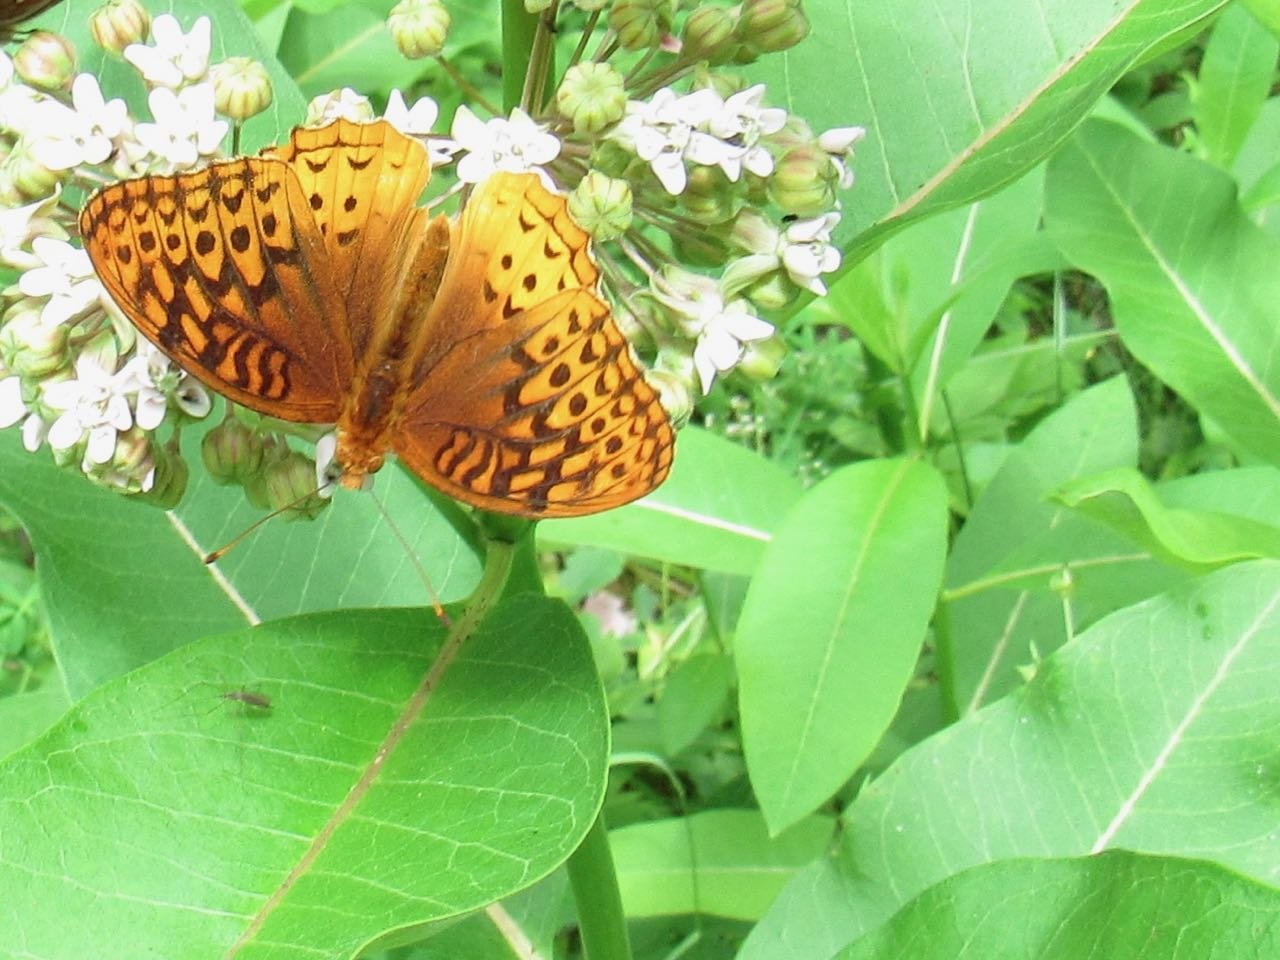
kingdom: Animalia
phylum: Arthropoda
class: Insecta
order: Lepidoptera
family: Nymphalidae
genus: Speyeria
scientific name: Speyeria cybele
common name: Great Spangled Fritillary
